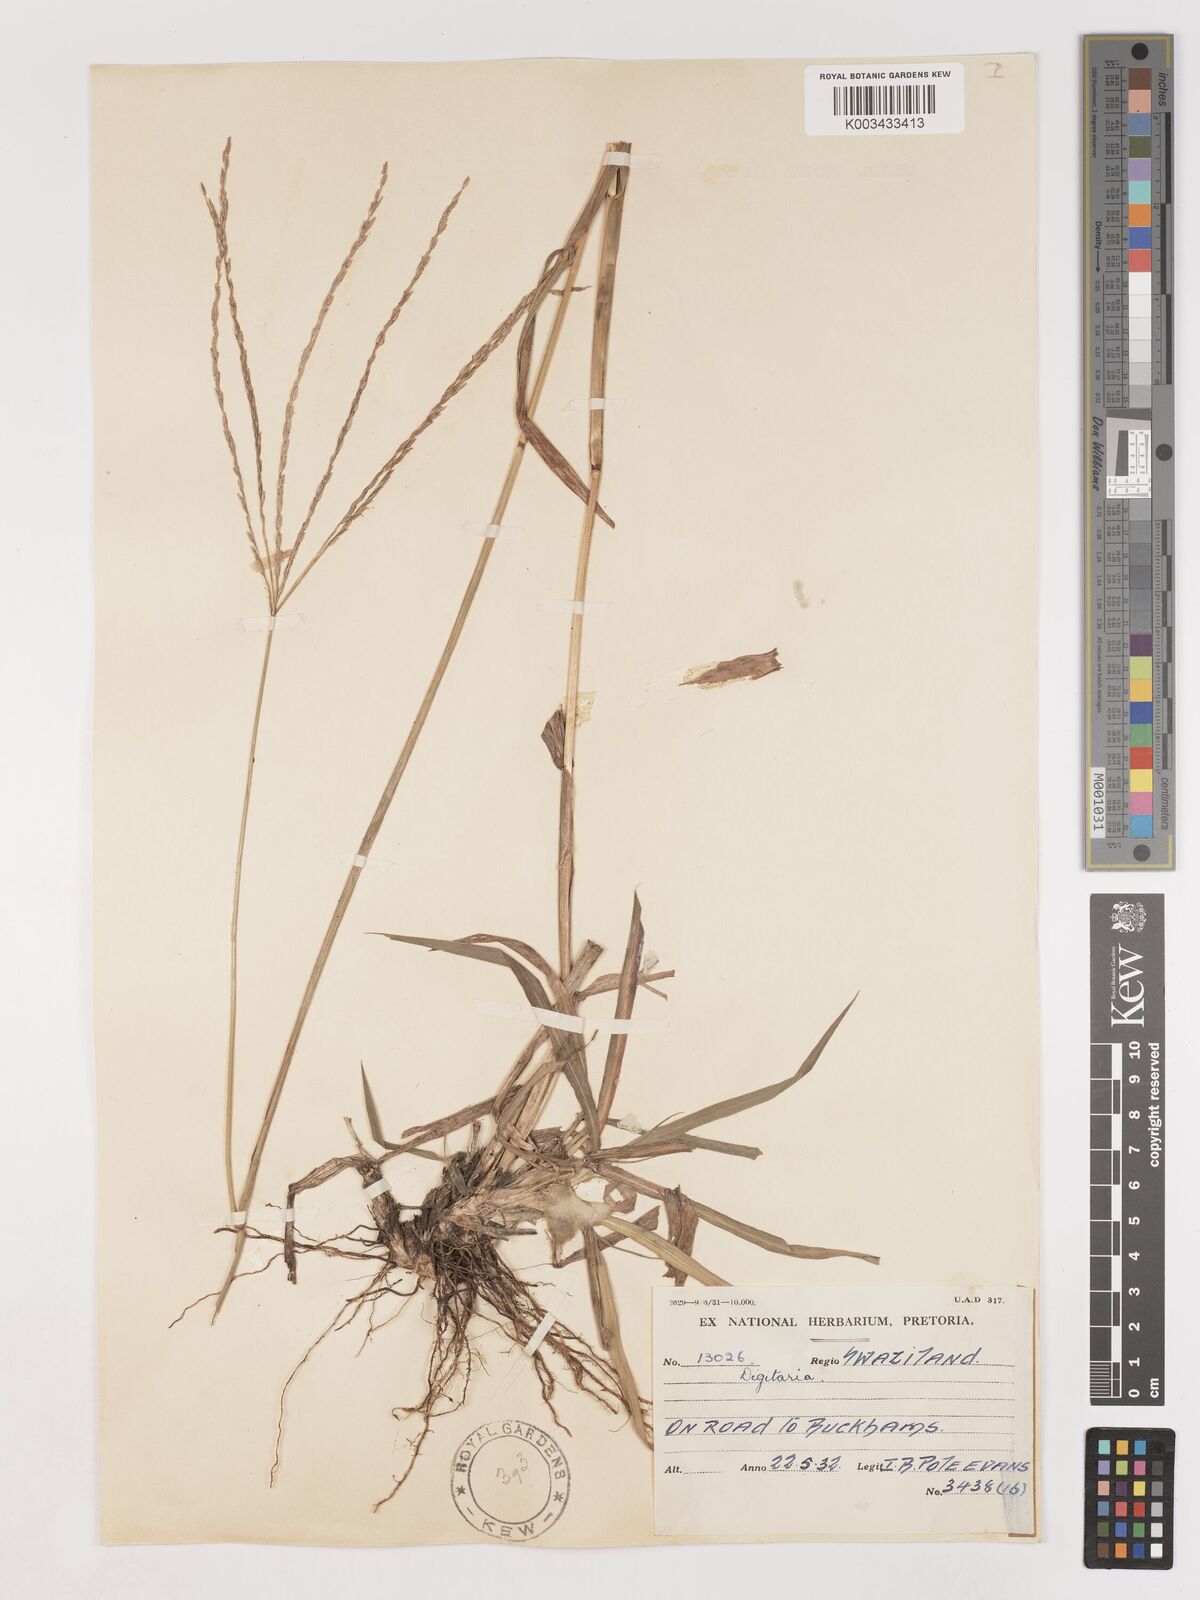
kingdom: Plantae
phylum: Tracheophyta
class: Liliopsida
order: Poales
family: Poaceae
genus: Digitaria
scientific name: Digitaria eriantha
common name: Digitgrass
